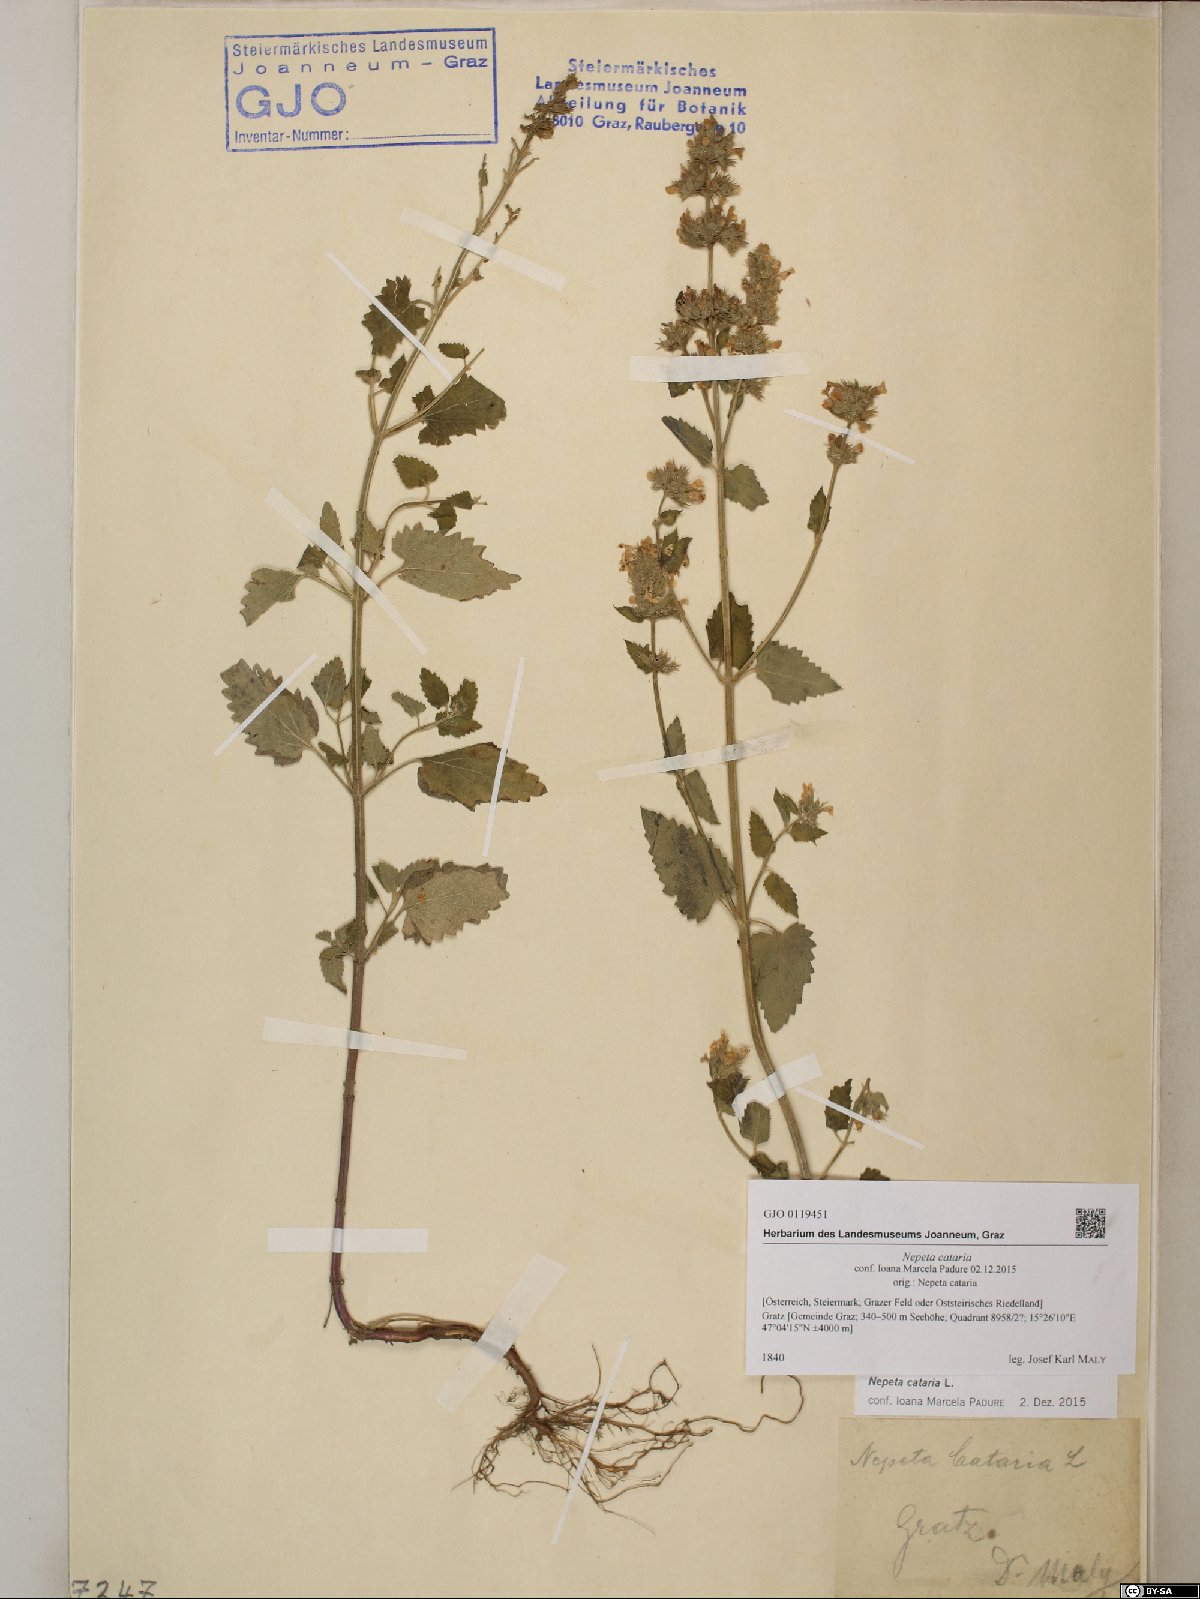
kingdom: Plantae
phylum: Tracheophyta
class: Magnoliopsida
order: Lamiales
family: Lamiaceae
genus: Nepeta
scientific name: Nepeta cataria
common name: Catnip
